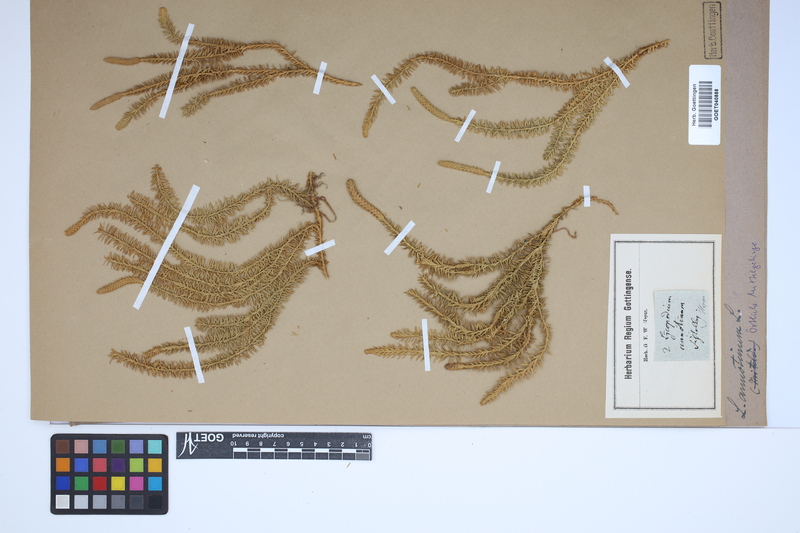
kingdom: Plantae
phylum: Tracheophyta
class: Lycopodiopsida
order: Lycopodiales
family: Lycopodiaceae
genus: Spinulum
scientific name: Spinulum annotinum
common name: Interrupted club-moss
